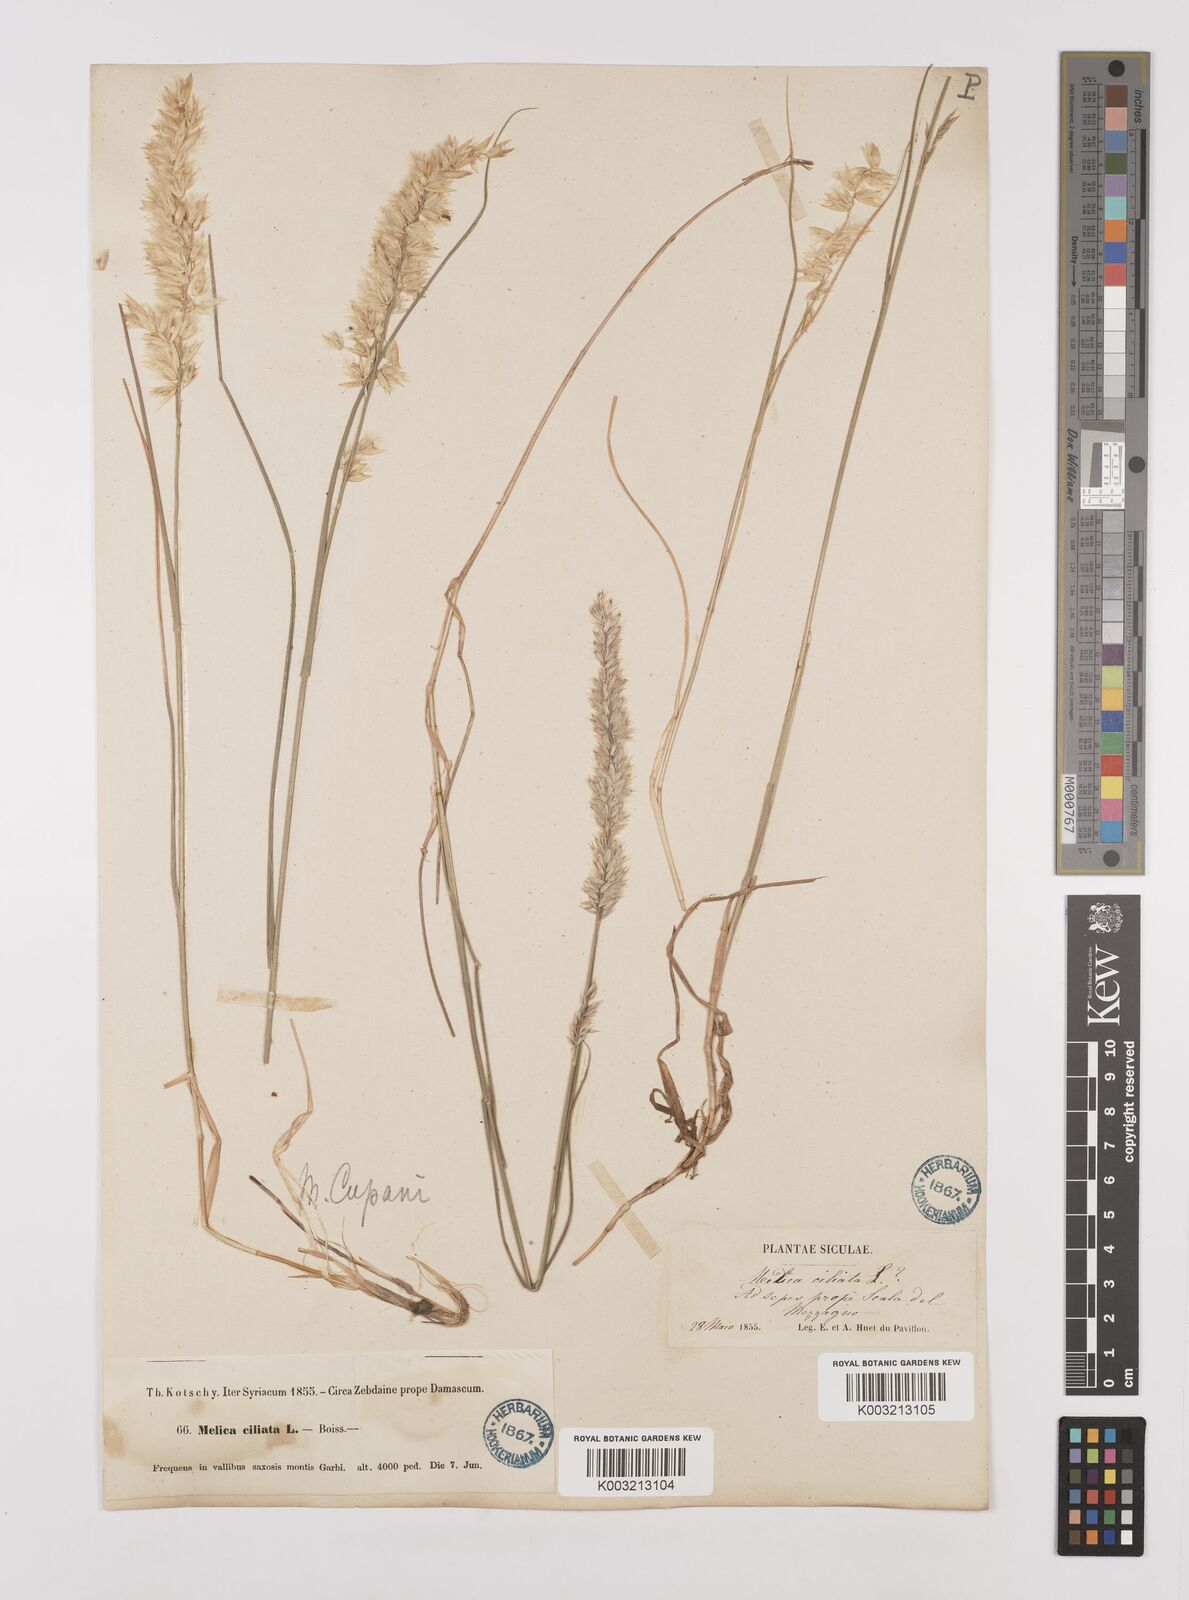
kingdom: Plantae
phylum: Tracheophyta
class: Liliopsida
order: Poales
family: Poaceae
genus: Melica
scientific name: Melica ciliata
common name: Hairy melicgrass
